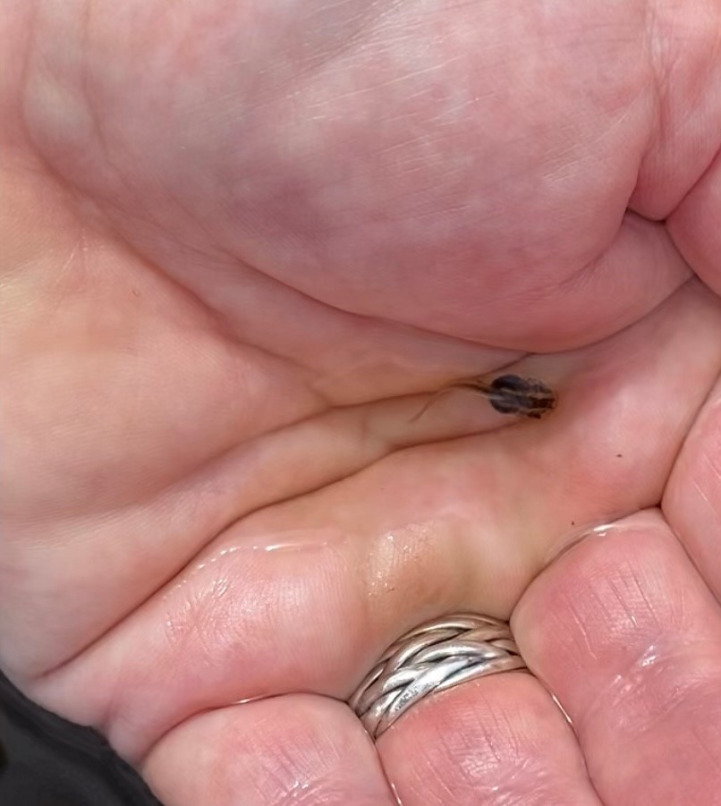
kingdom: Animalia
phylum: Chordata
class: Amphibia
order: Anura
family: Bombinatoridae
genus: Bombina
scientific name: Bombina bombina
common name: Klokkefrø
